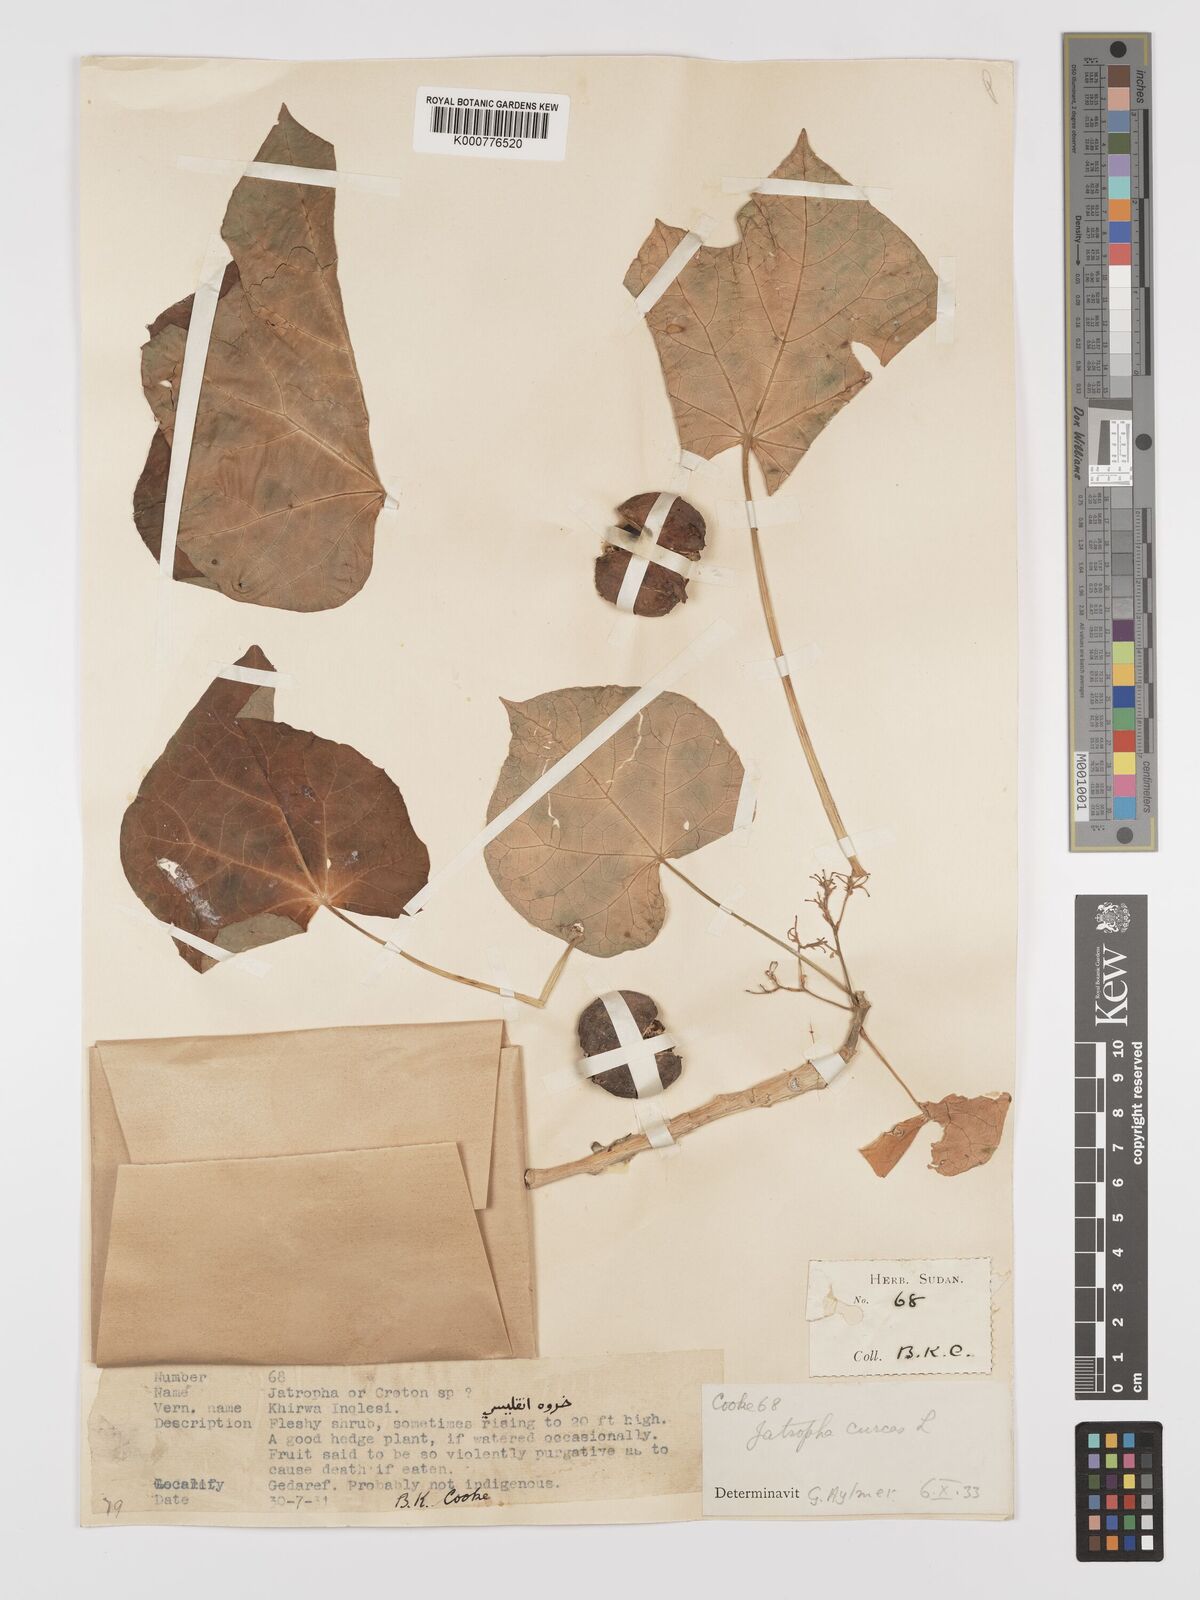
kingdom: Plantae
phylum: Tracheophyta
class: Magnoliopsida
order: Malpighiales
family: Euphorbiaceae
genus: Jatropha
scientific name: Jatropha curcas
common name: Barbados nut
